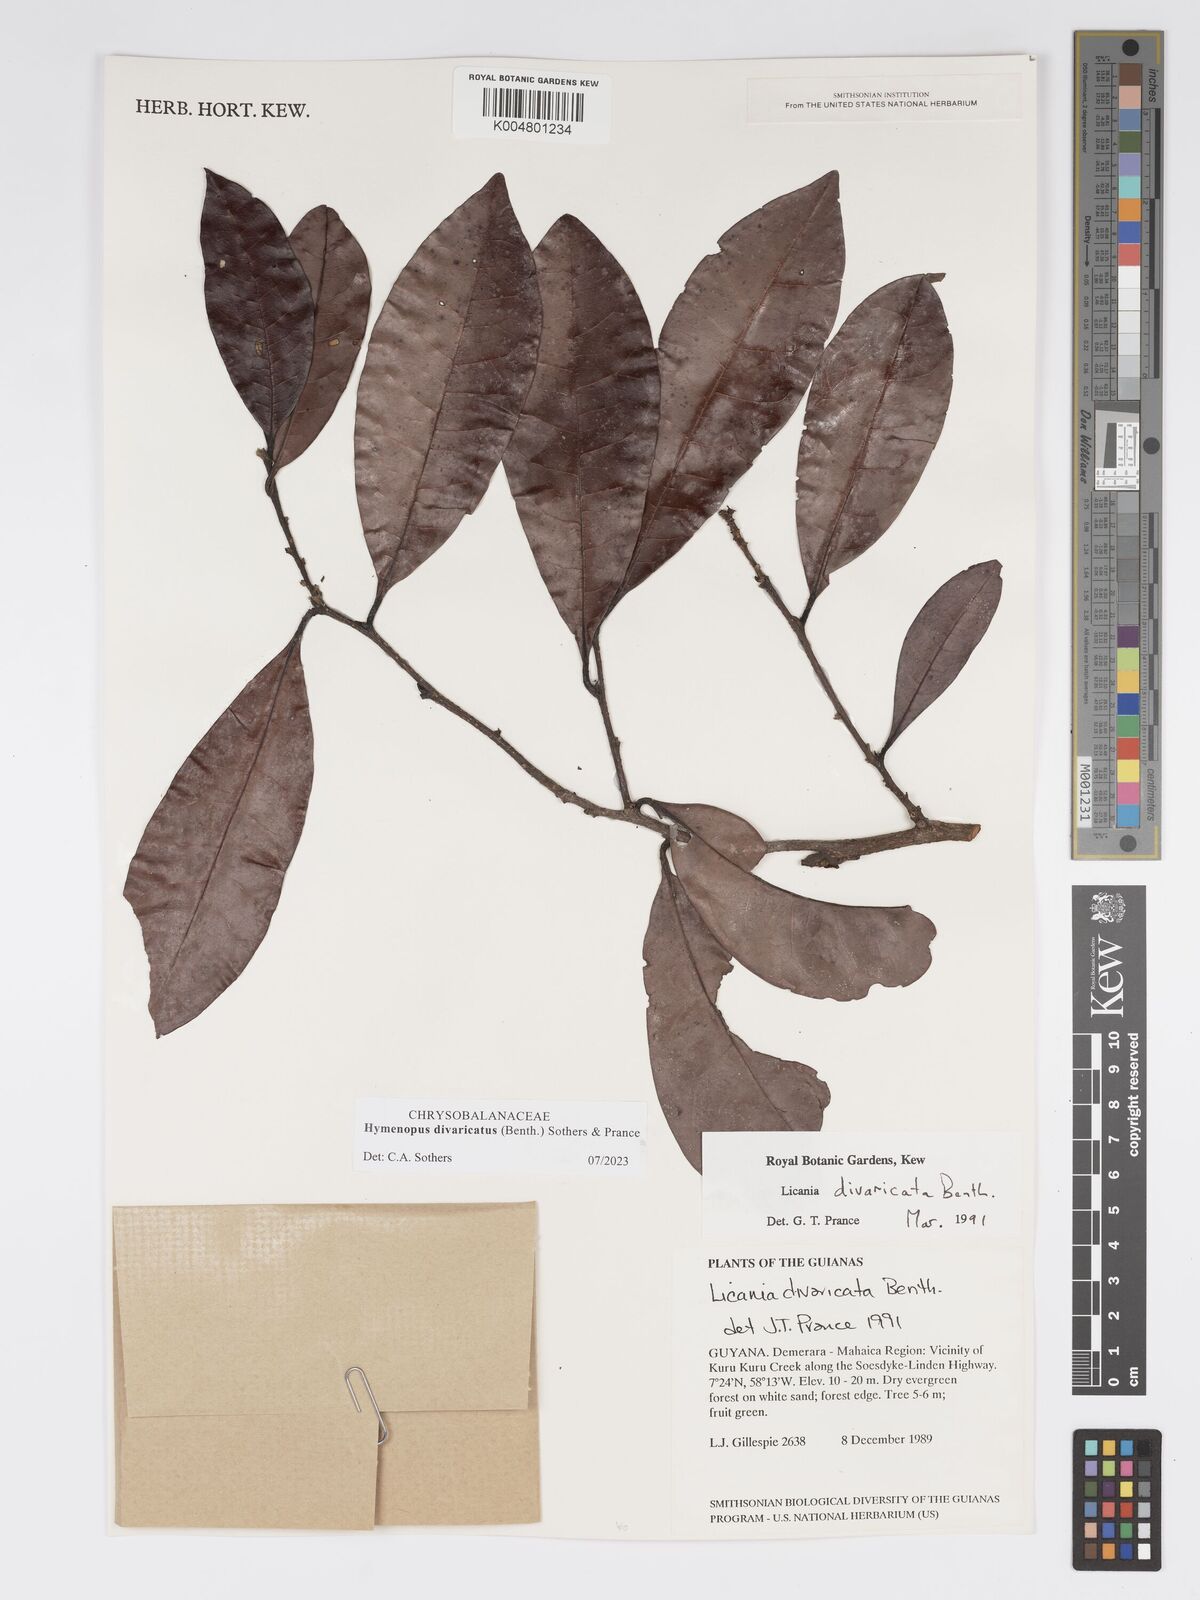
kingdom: Plantae
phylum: Tracheophyta
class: Magnoliopsida
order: Malpighiales
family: Chrysobalanaceae
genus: Hymenopus
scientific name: Hymenopus divaricatus
